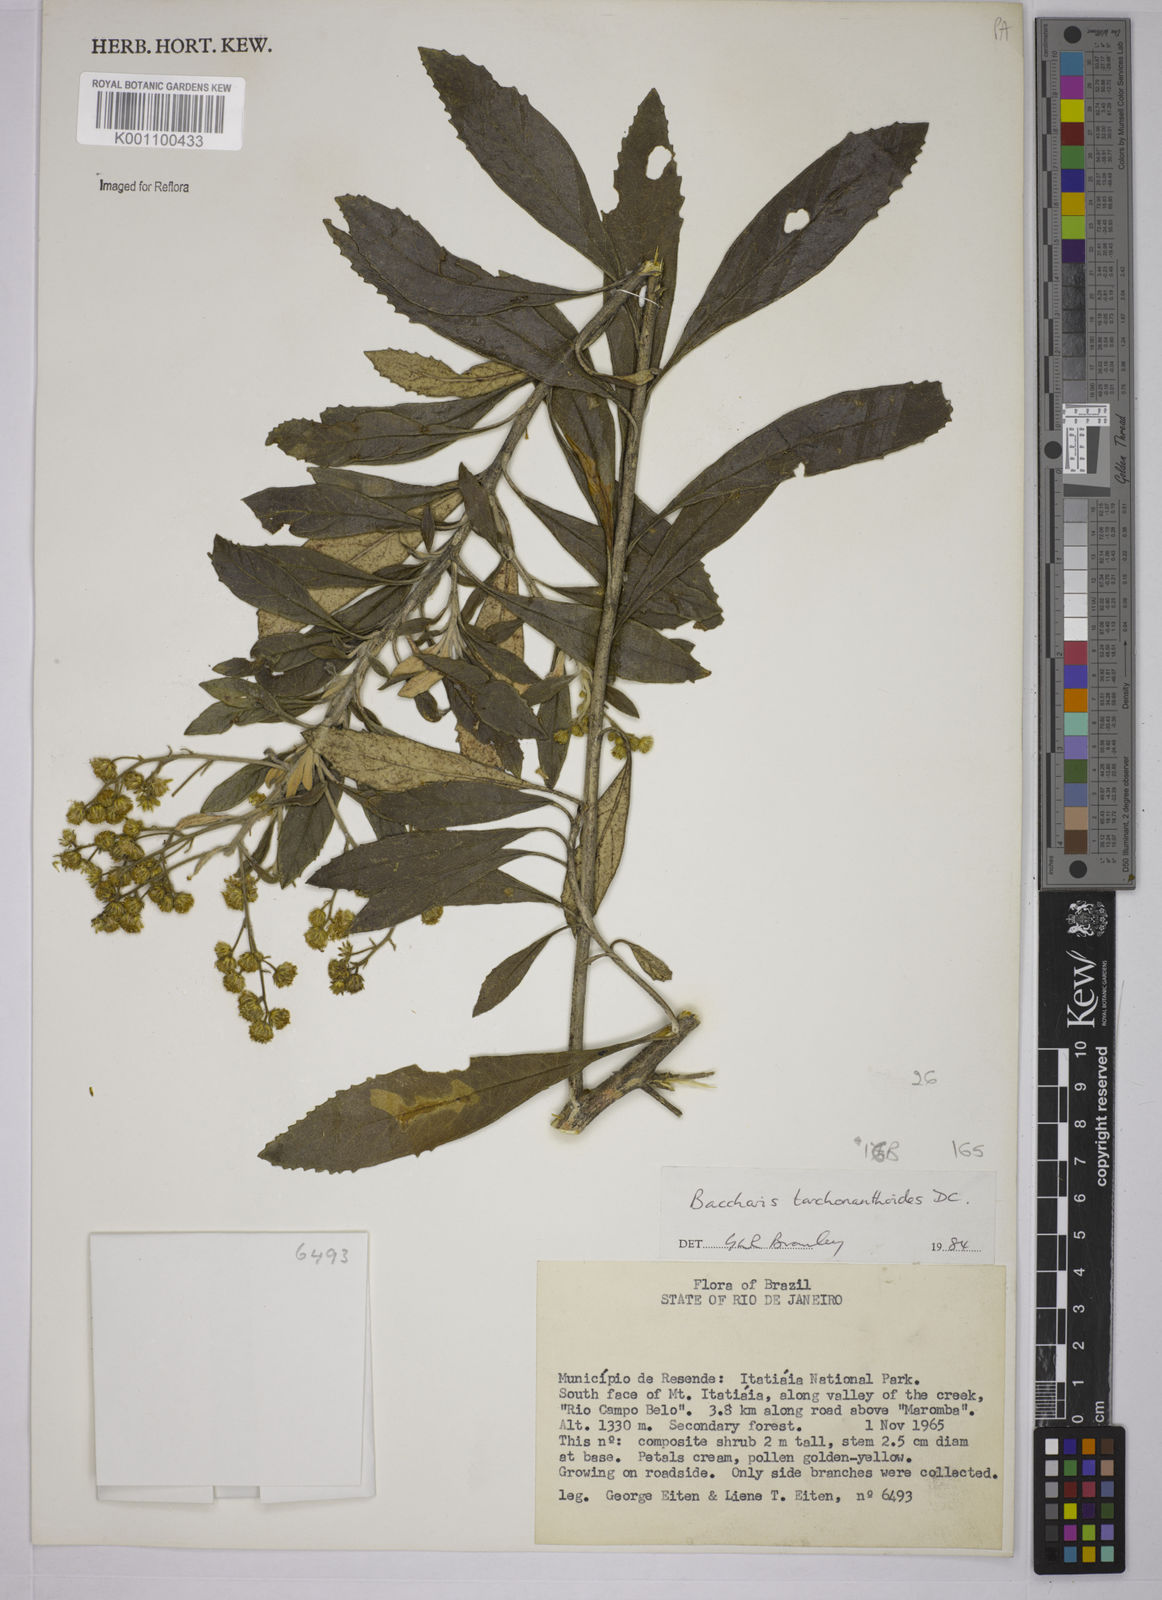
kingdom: Plantae
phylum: Tracheophyta
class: Magnoliopsida
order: Asterales
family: Asteraceae
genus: Baccharis
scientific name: Baccharis
